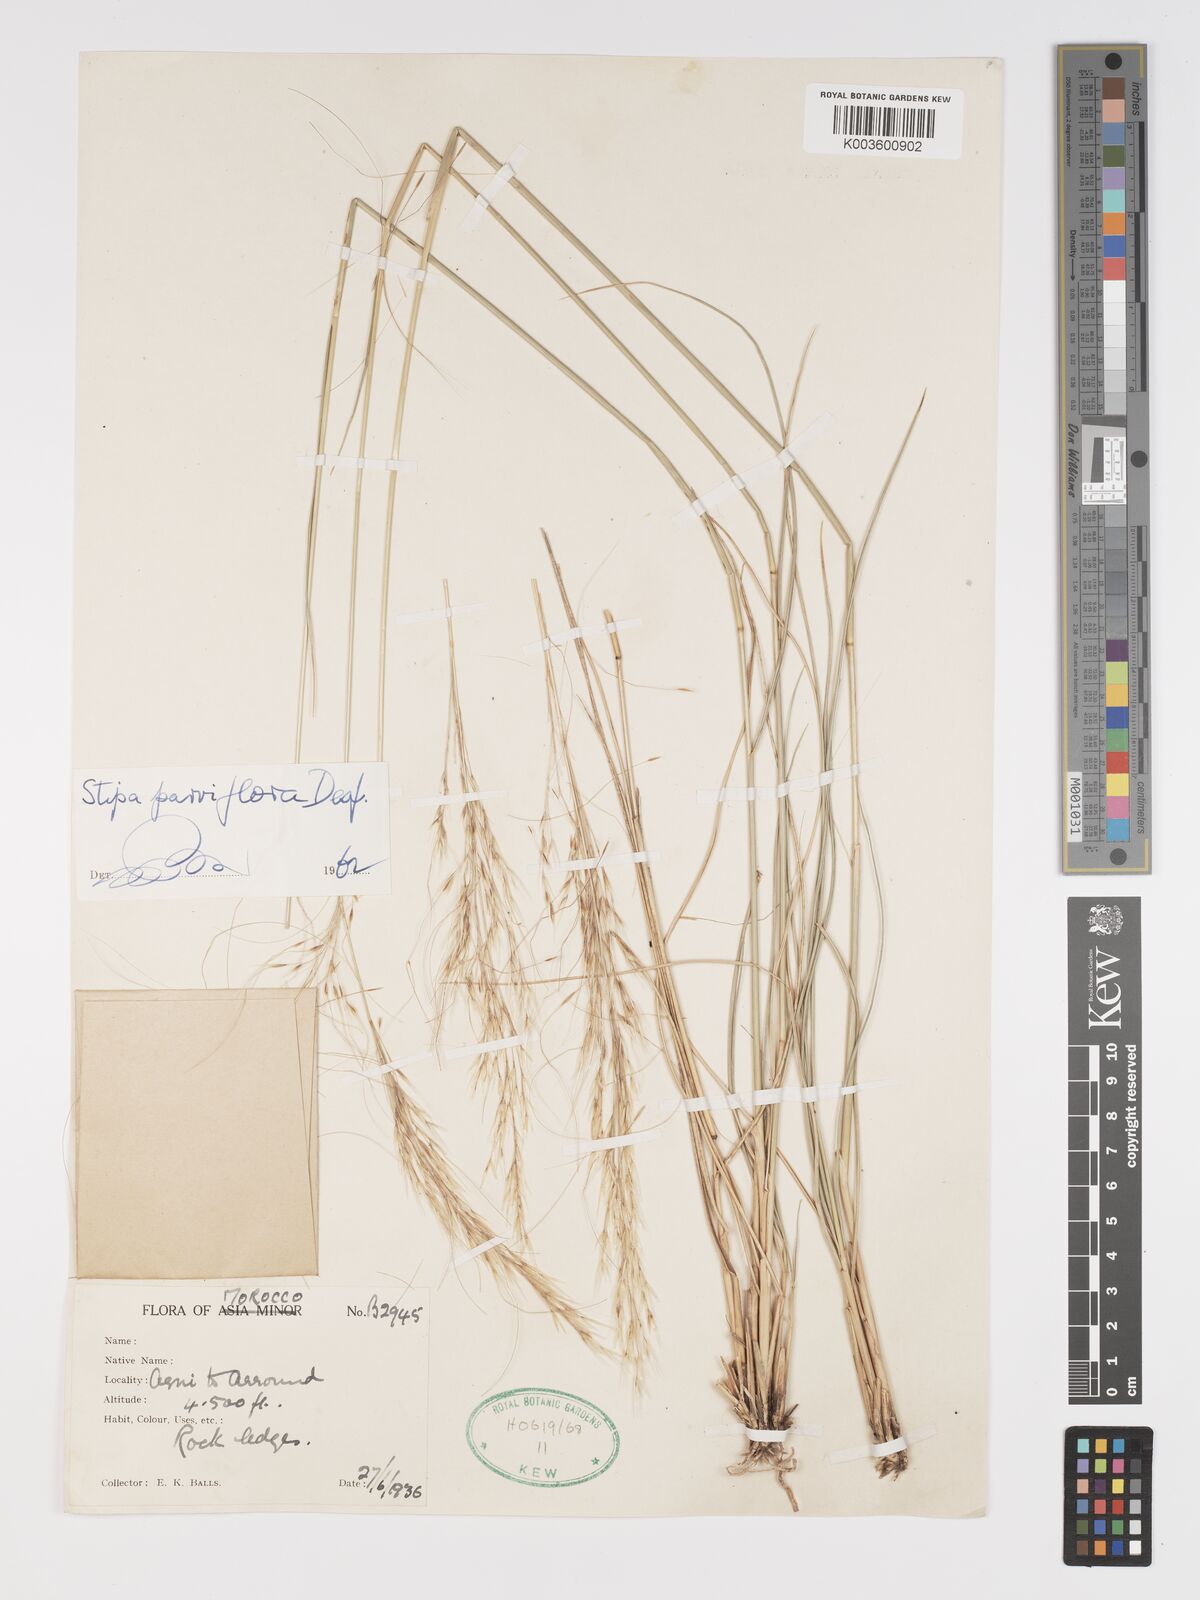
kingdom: Plantae
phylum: Tracheophyta
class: Liliopsida
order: Poales
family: Poaceae
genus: Achnatherum
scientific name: Achnatherum parviflorum
